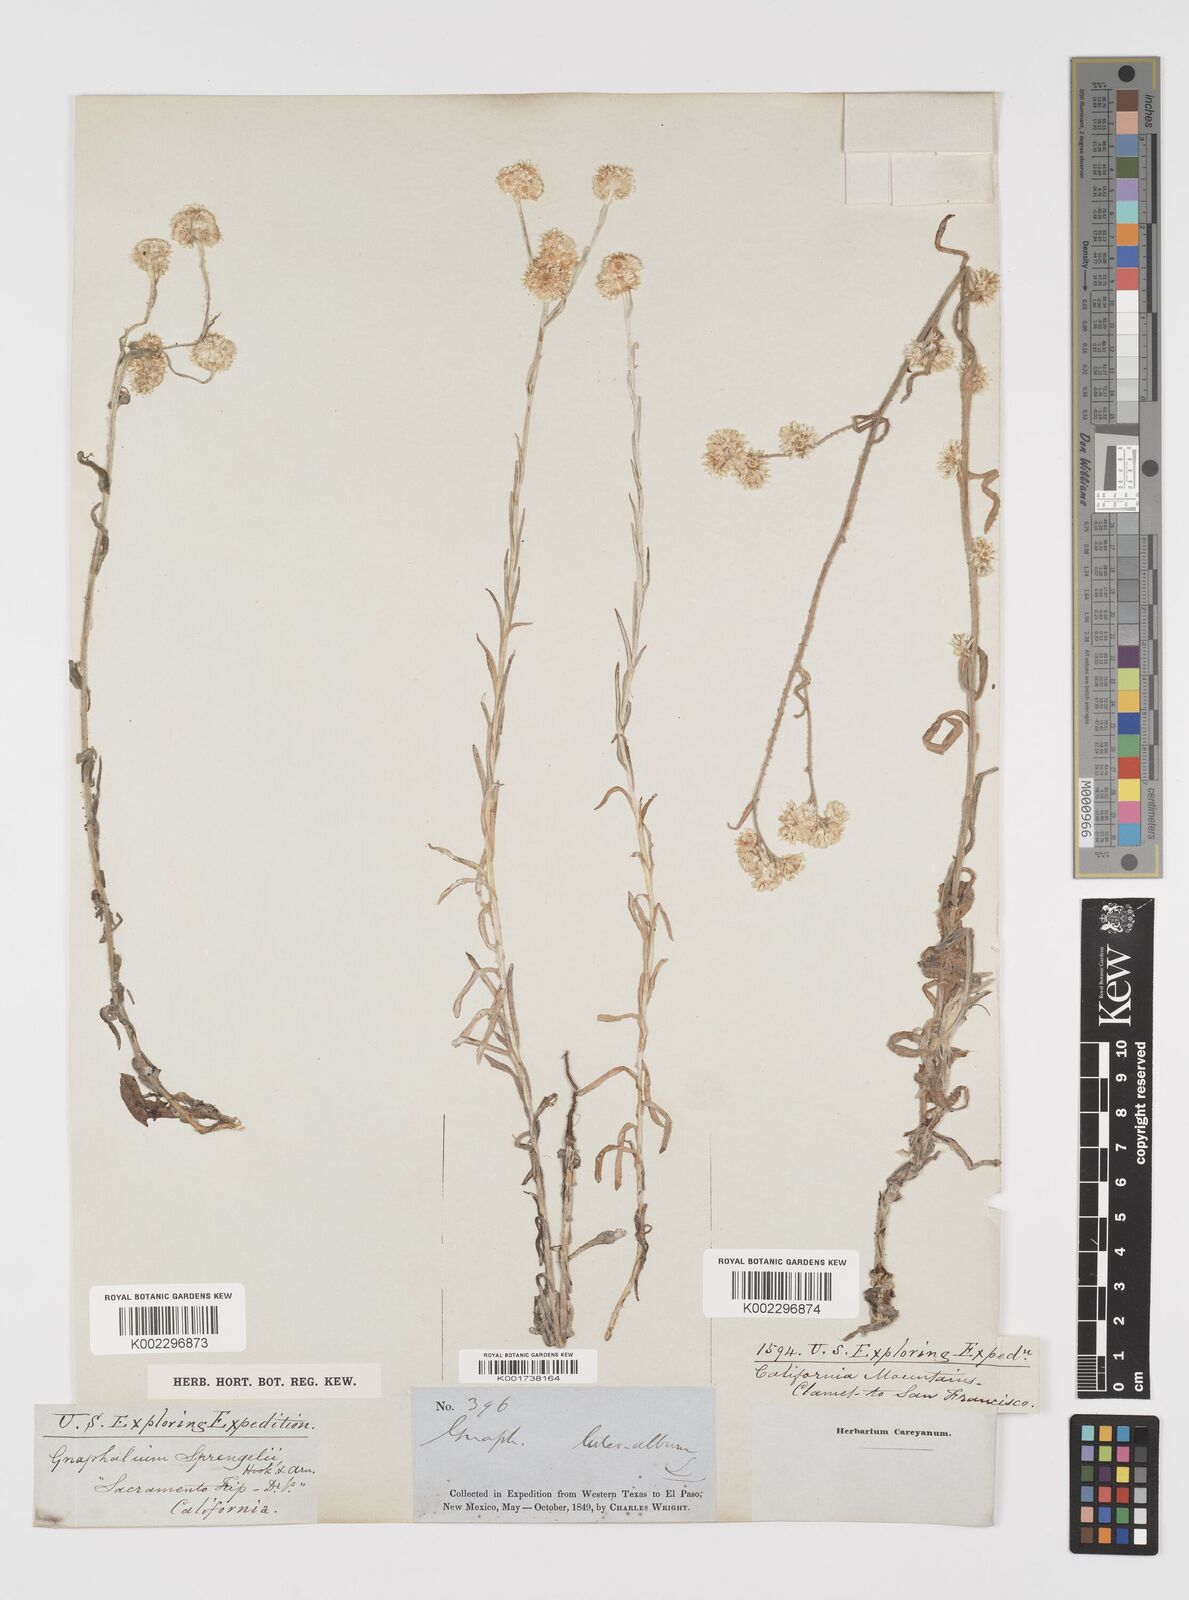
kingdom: Plantae
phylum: Tracheophyta
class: Magnoliopsida
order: Asterales
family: Asteraceae
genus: Helichrysum
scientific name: Helichrysum luteoalbum
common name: Daisy
